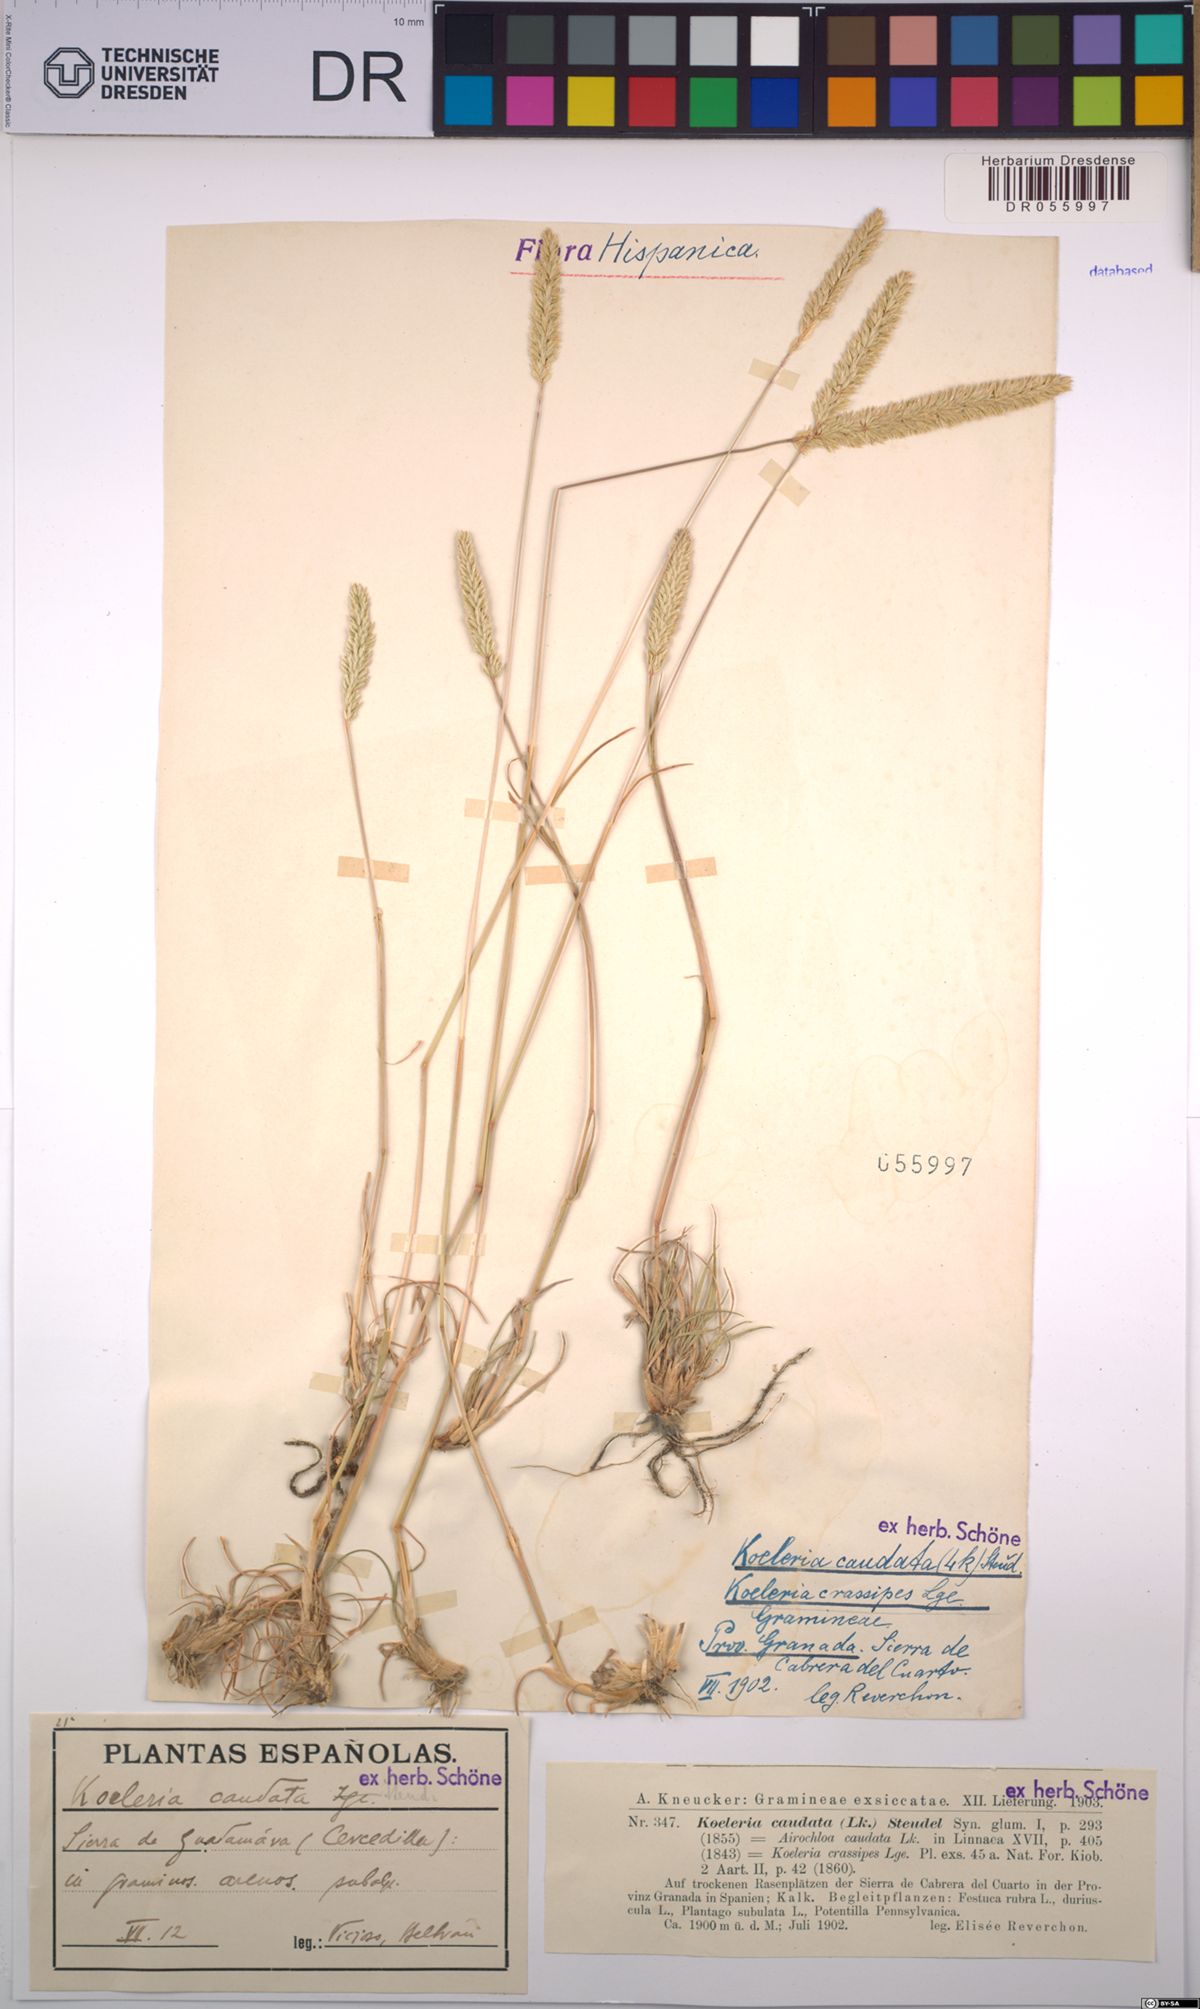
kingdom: Plantae
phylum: Tracheophyta
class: Liliopsida
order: Poales
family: Poaceae
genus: Koeleria
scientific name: Koeleria caudata
